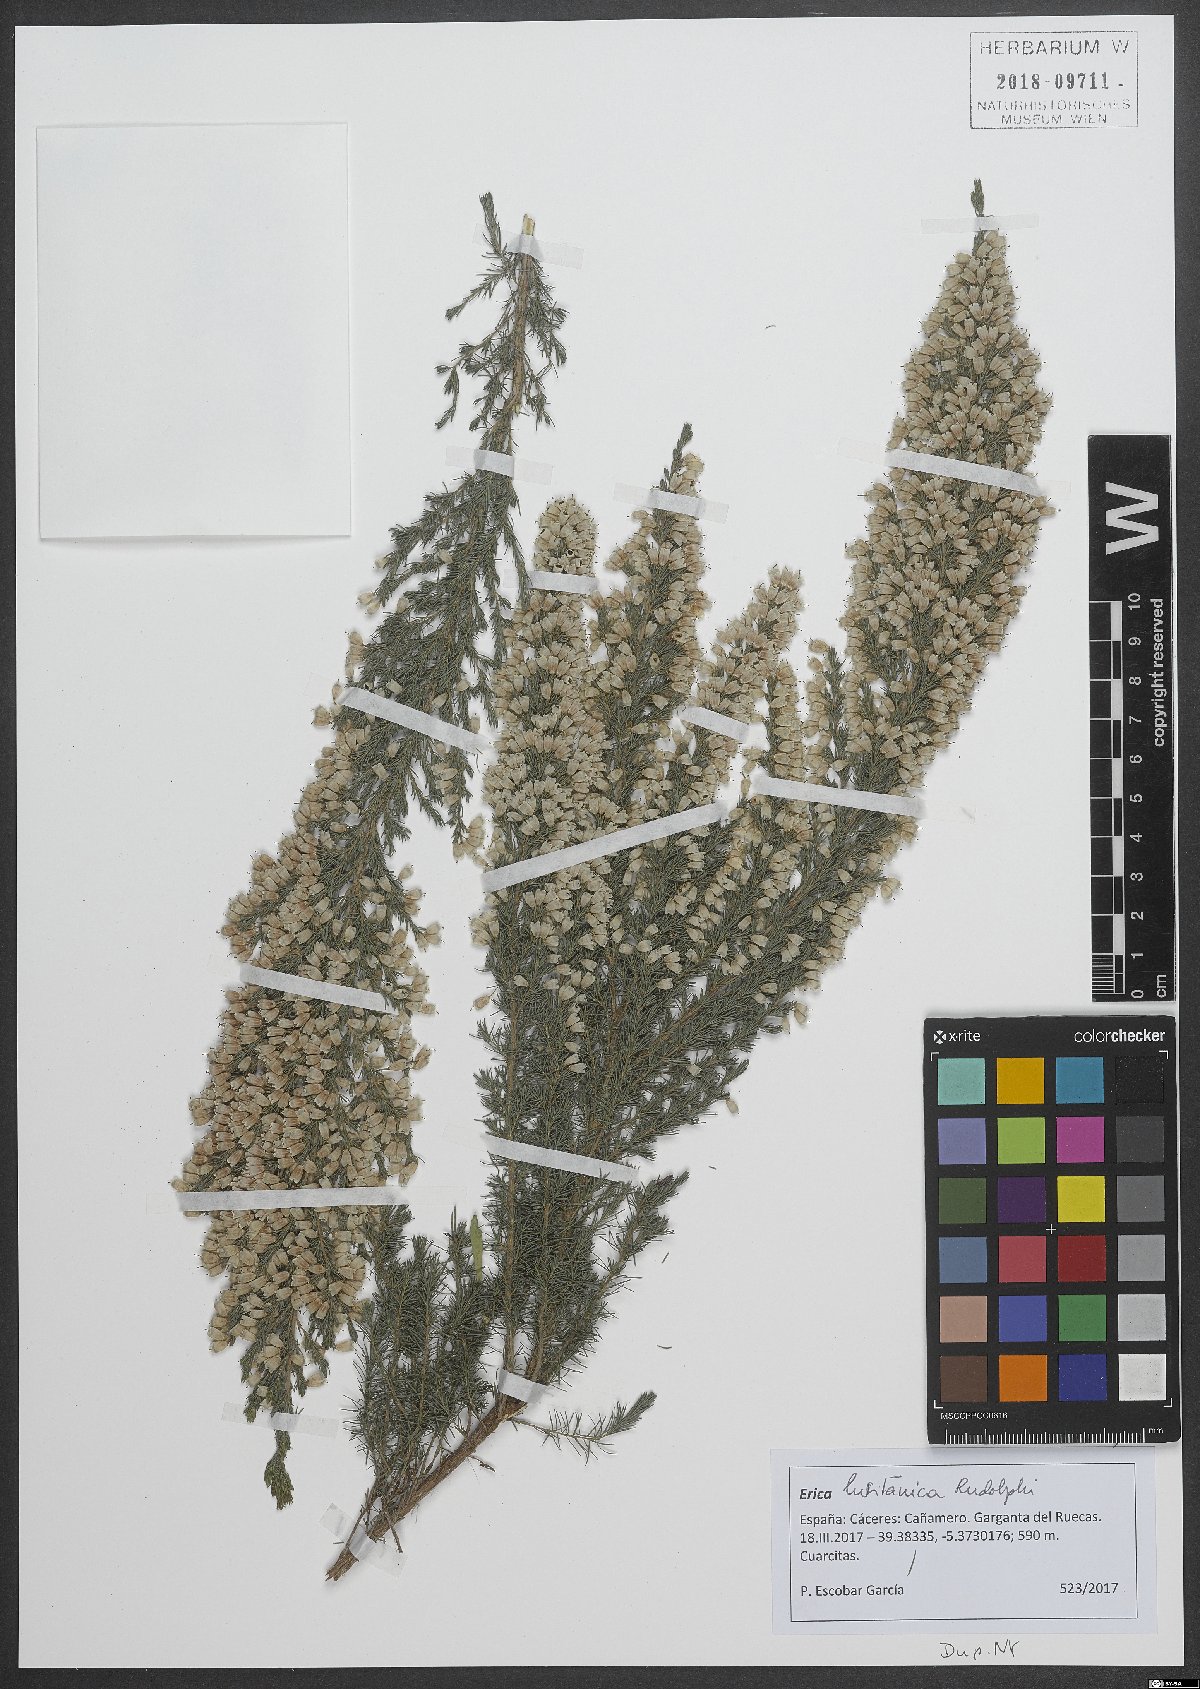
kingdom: Plantae
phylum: Tracheophyta
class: Magnoliopsida
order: Ericales
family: Ericaceae
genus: Erica
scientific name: Erica lusitanica
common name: Spanish heath
